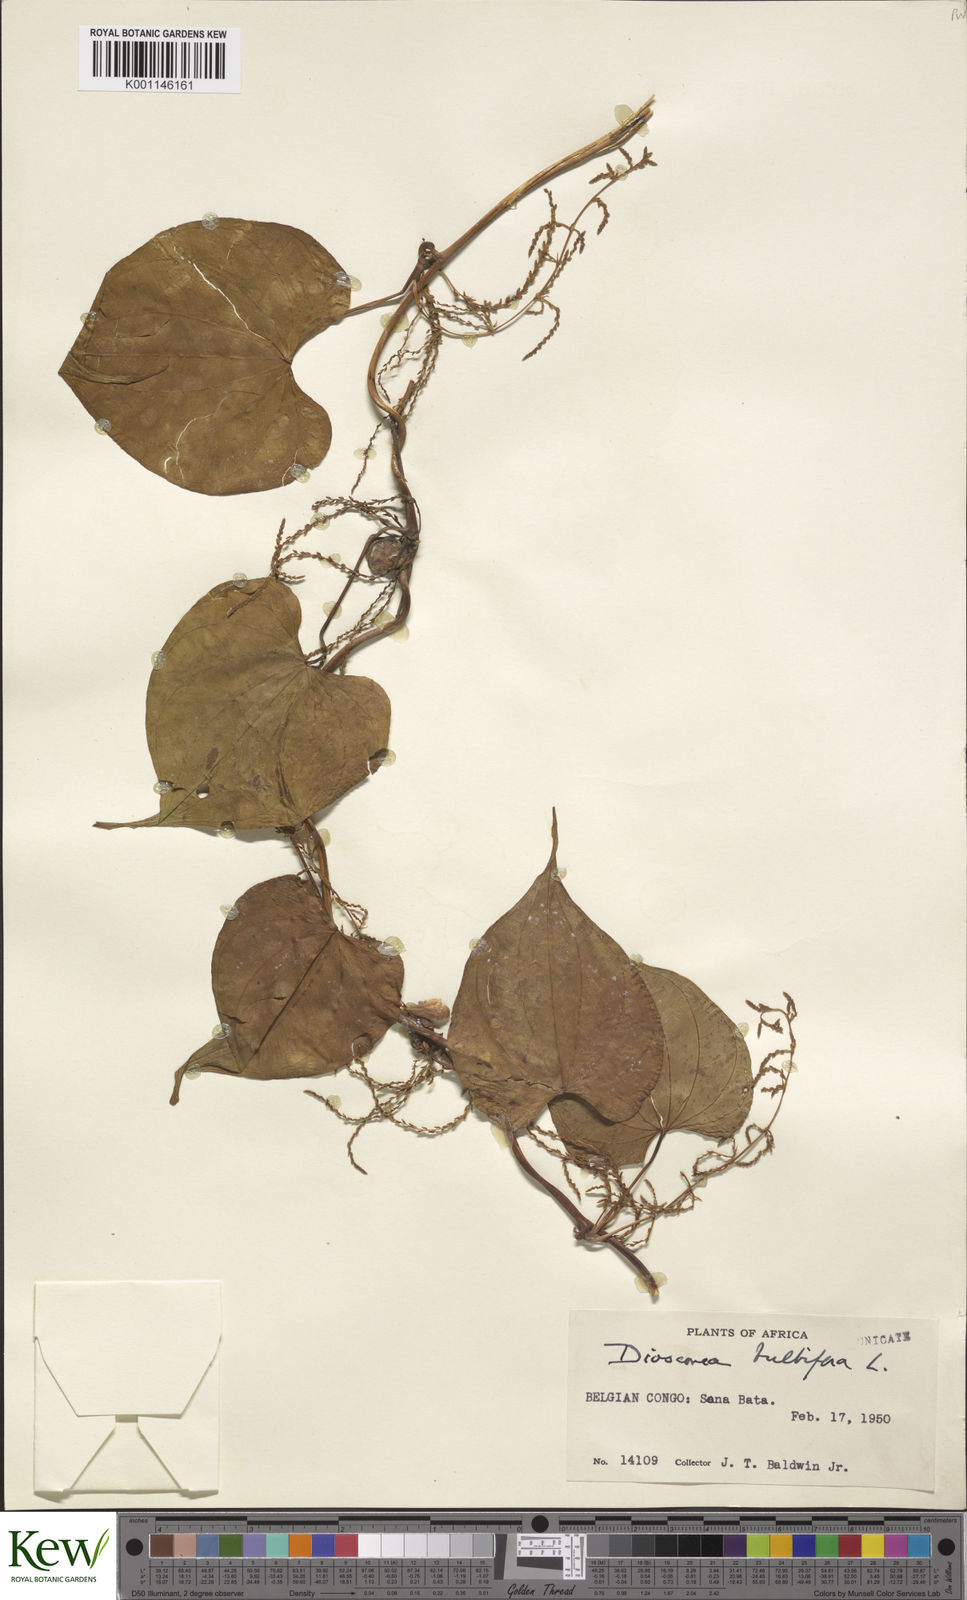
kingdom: Plantae
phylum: Tracheophyta
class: Liliopsida
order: Dioscoreales
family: Dioscoreaceae
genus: Dioscorea
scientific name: Dioscorea bulbifera
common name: Air yam
